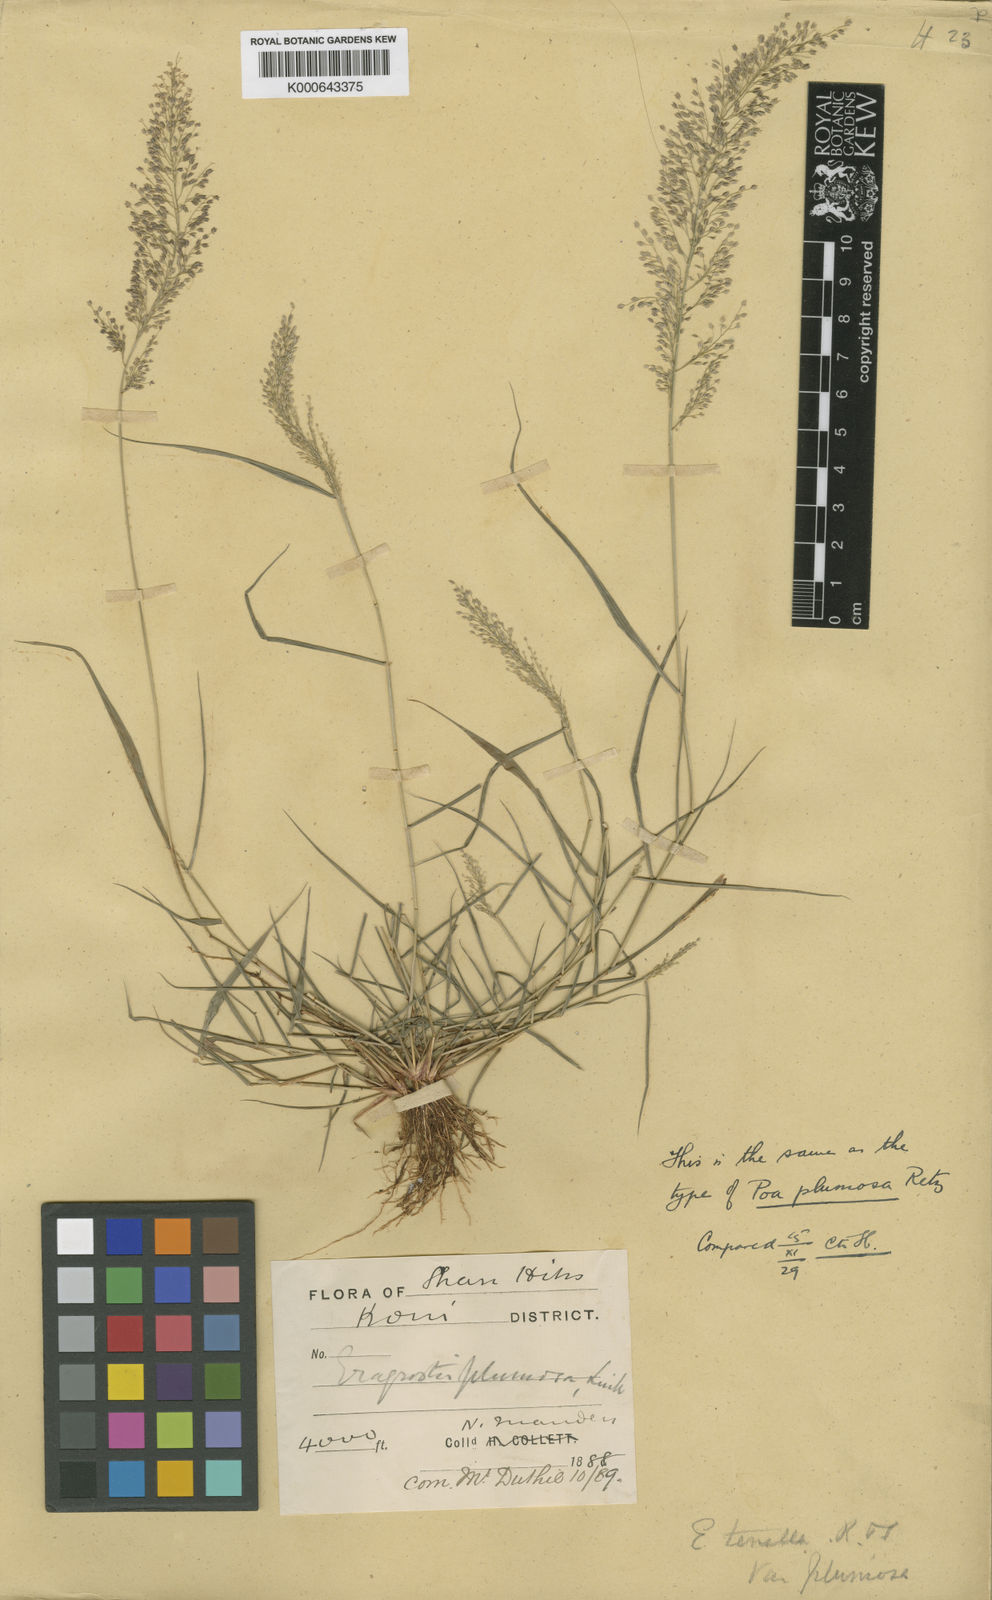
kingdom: Plantae
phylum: Tracheophyta
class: Liliopsida
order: Poales
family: Poaceae
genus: Eragrostis
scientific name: Eragrostis tenella
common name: Japanese lovegrass
